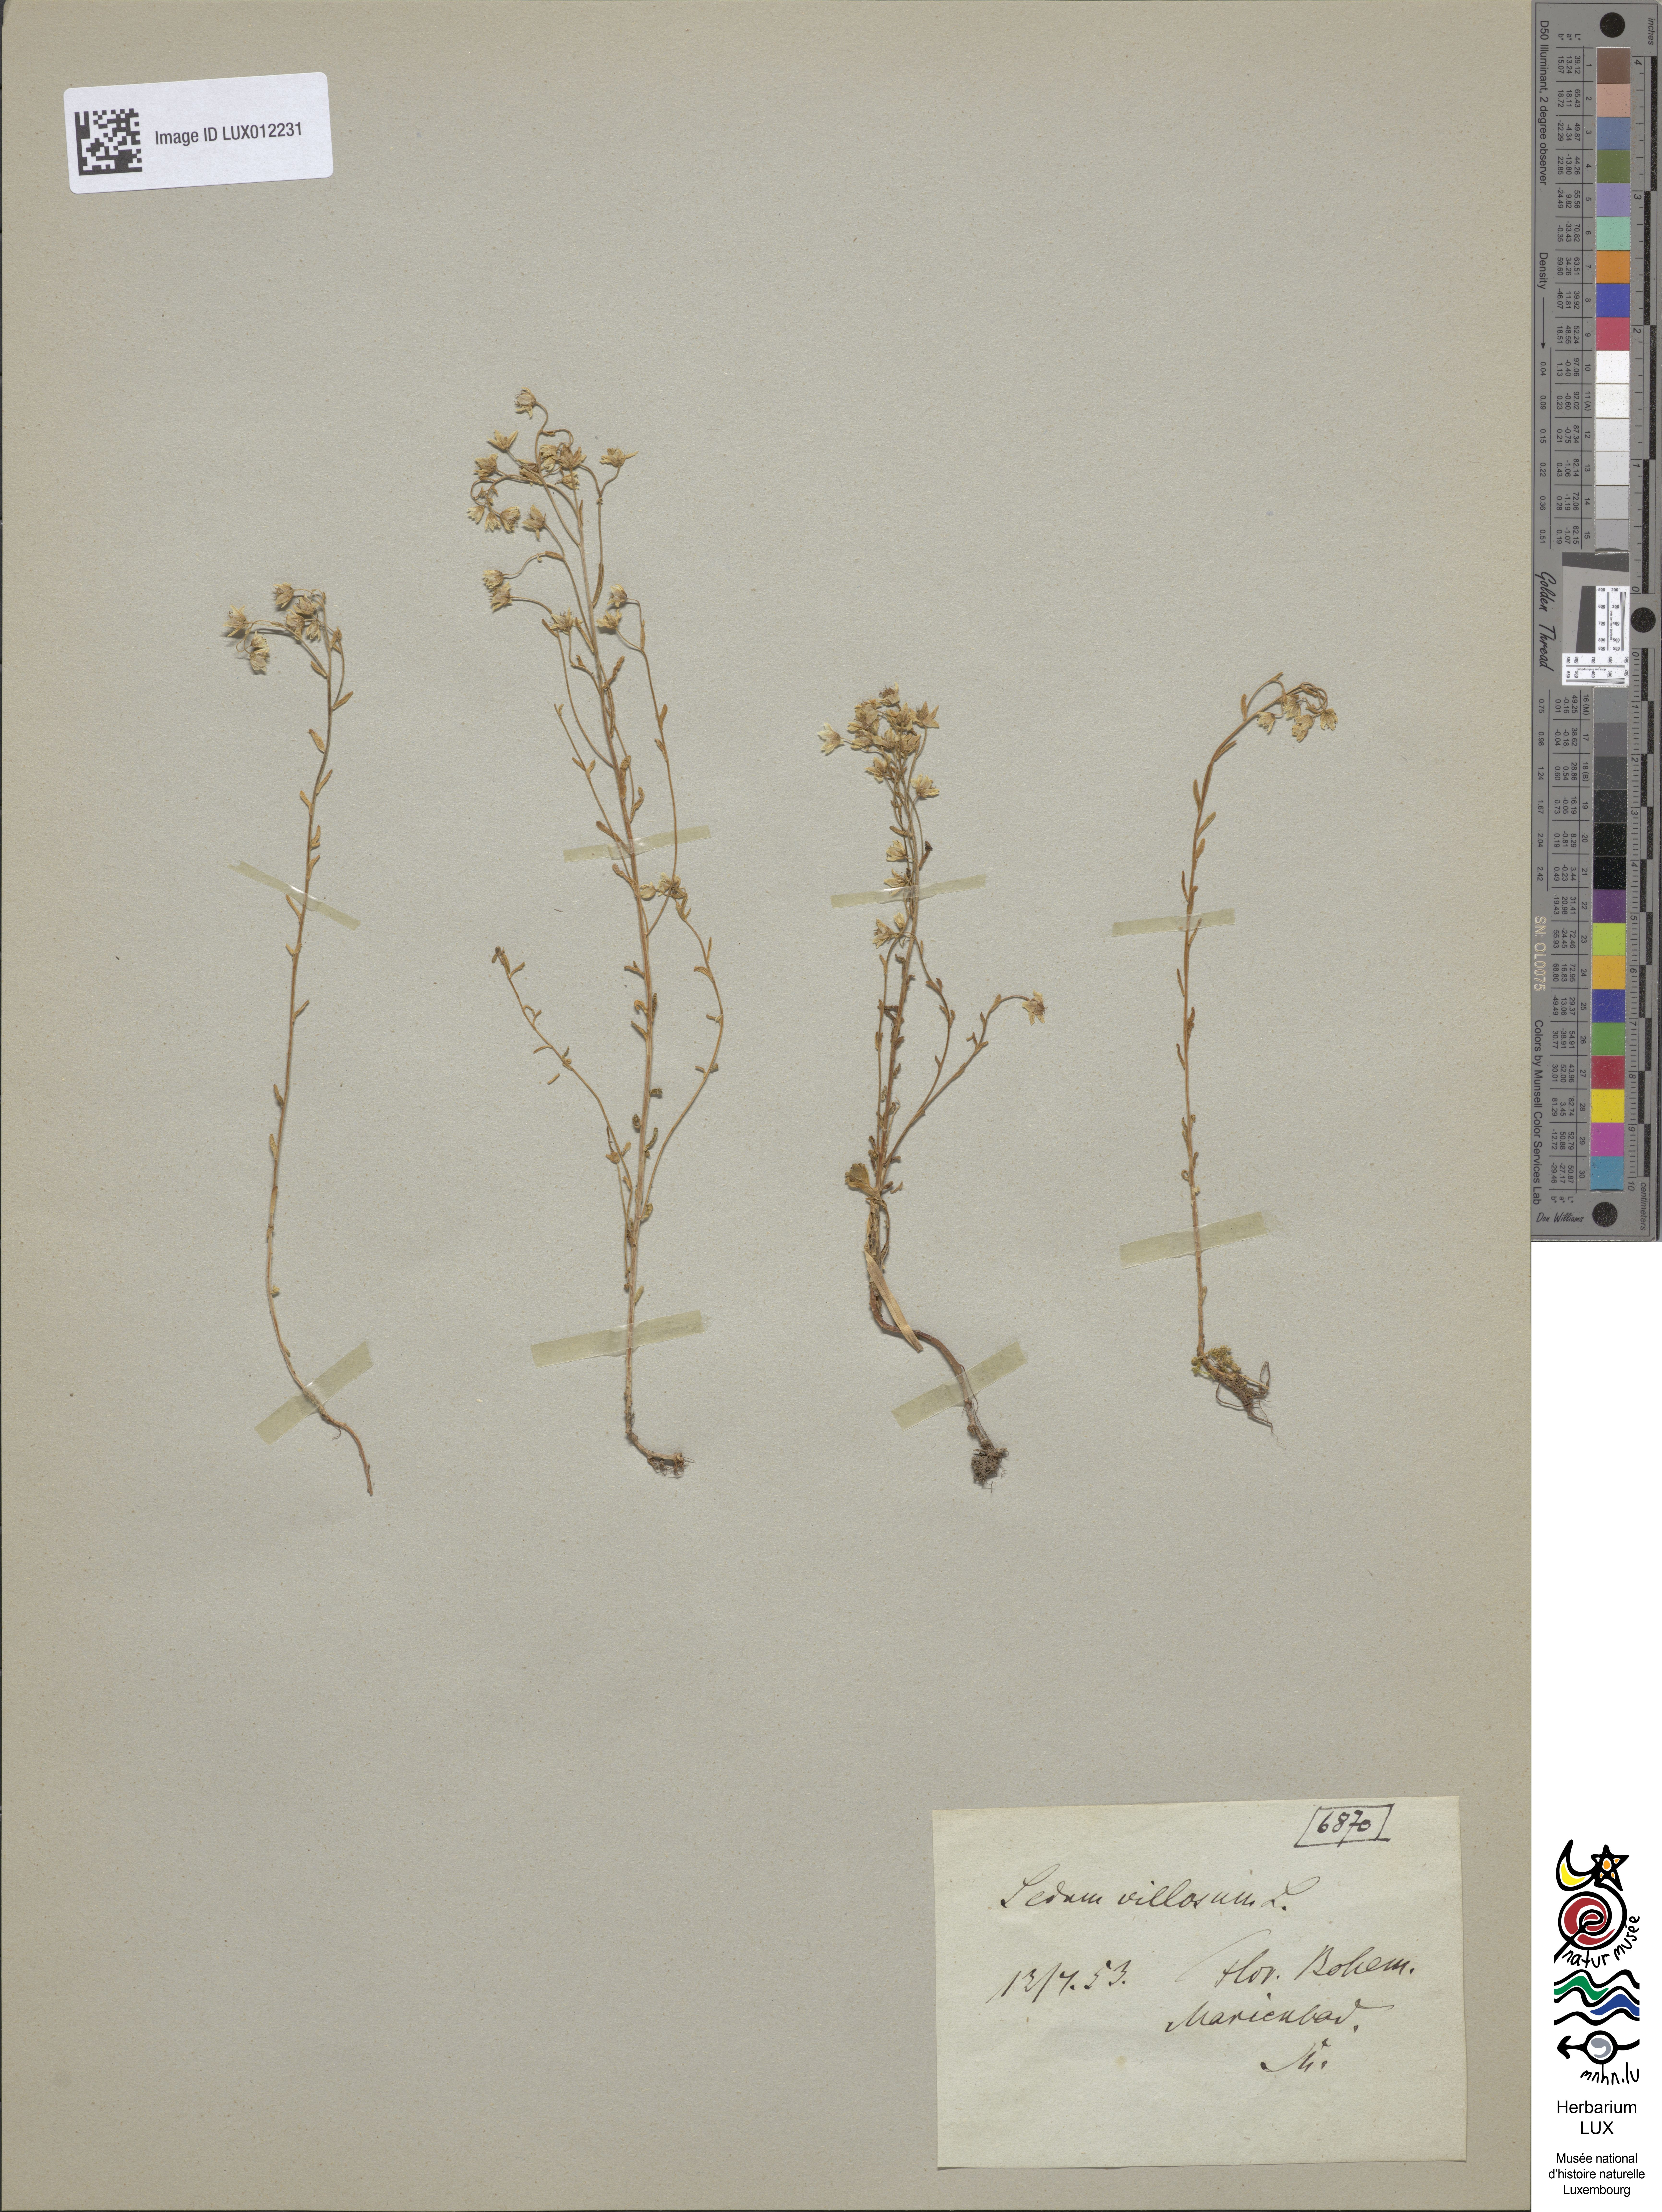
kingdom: Plantae
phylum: Tracheophyta
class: Magnoliopsida
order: Saxifragales
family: Crassulaceae
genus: Sedum
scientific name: Sedum villosum
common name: Hairy stonecrop
